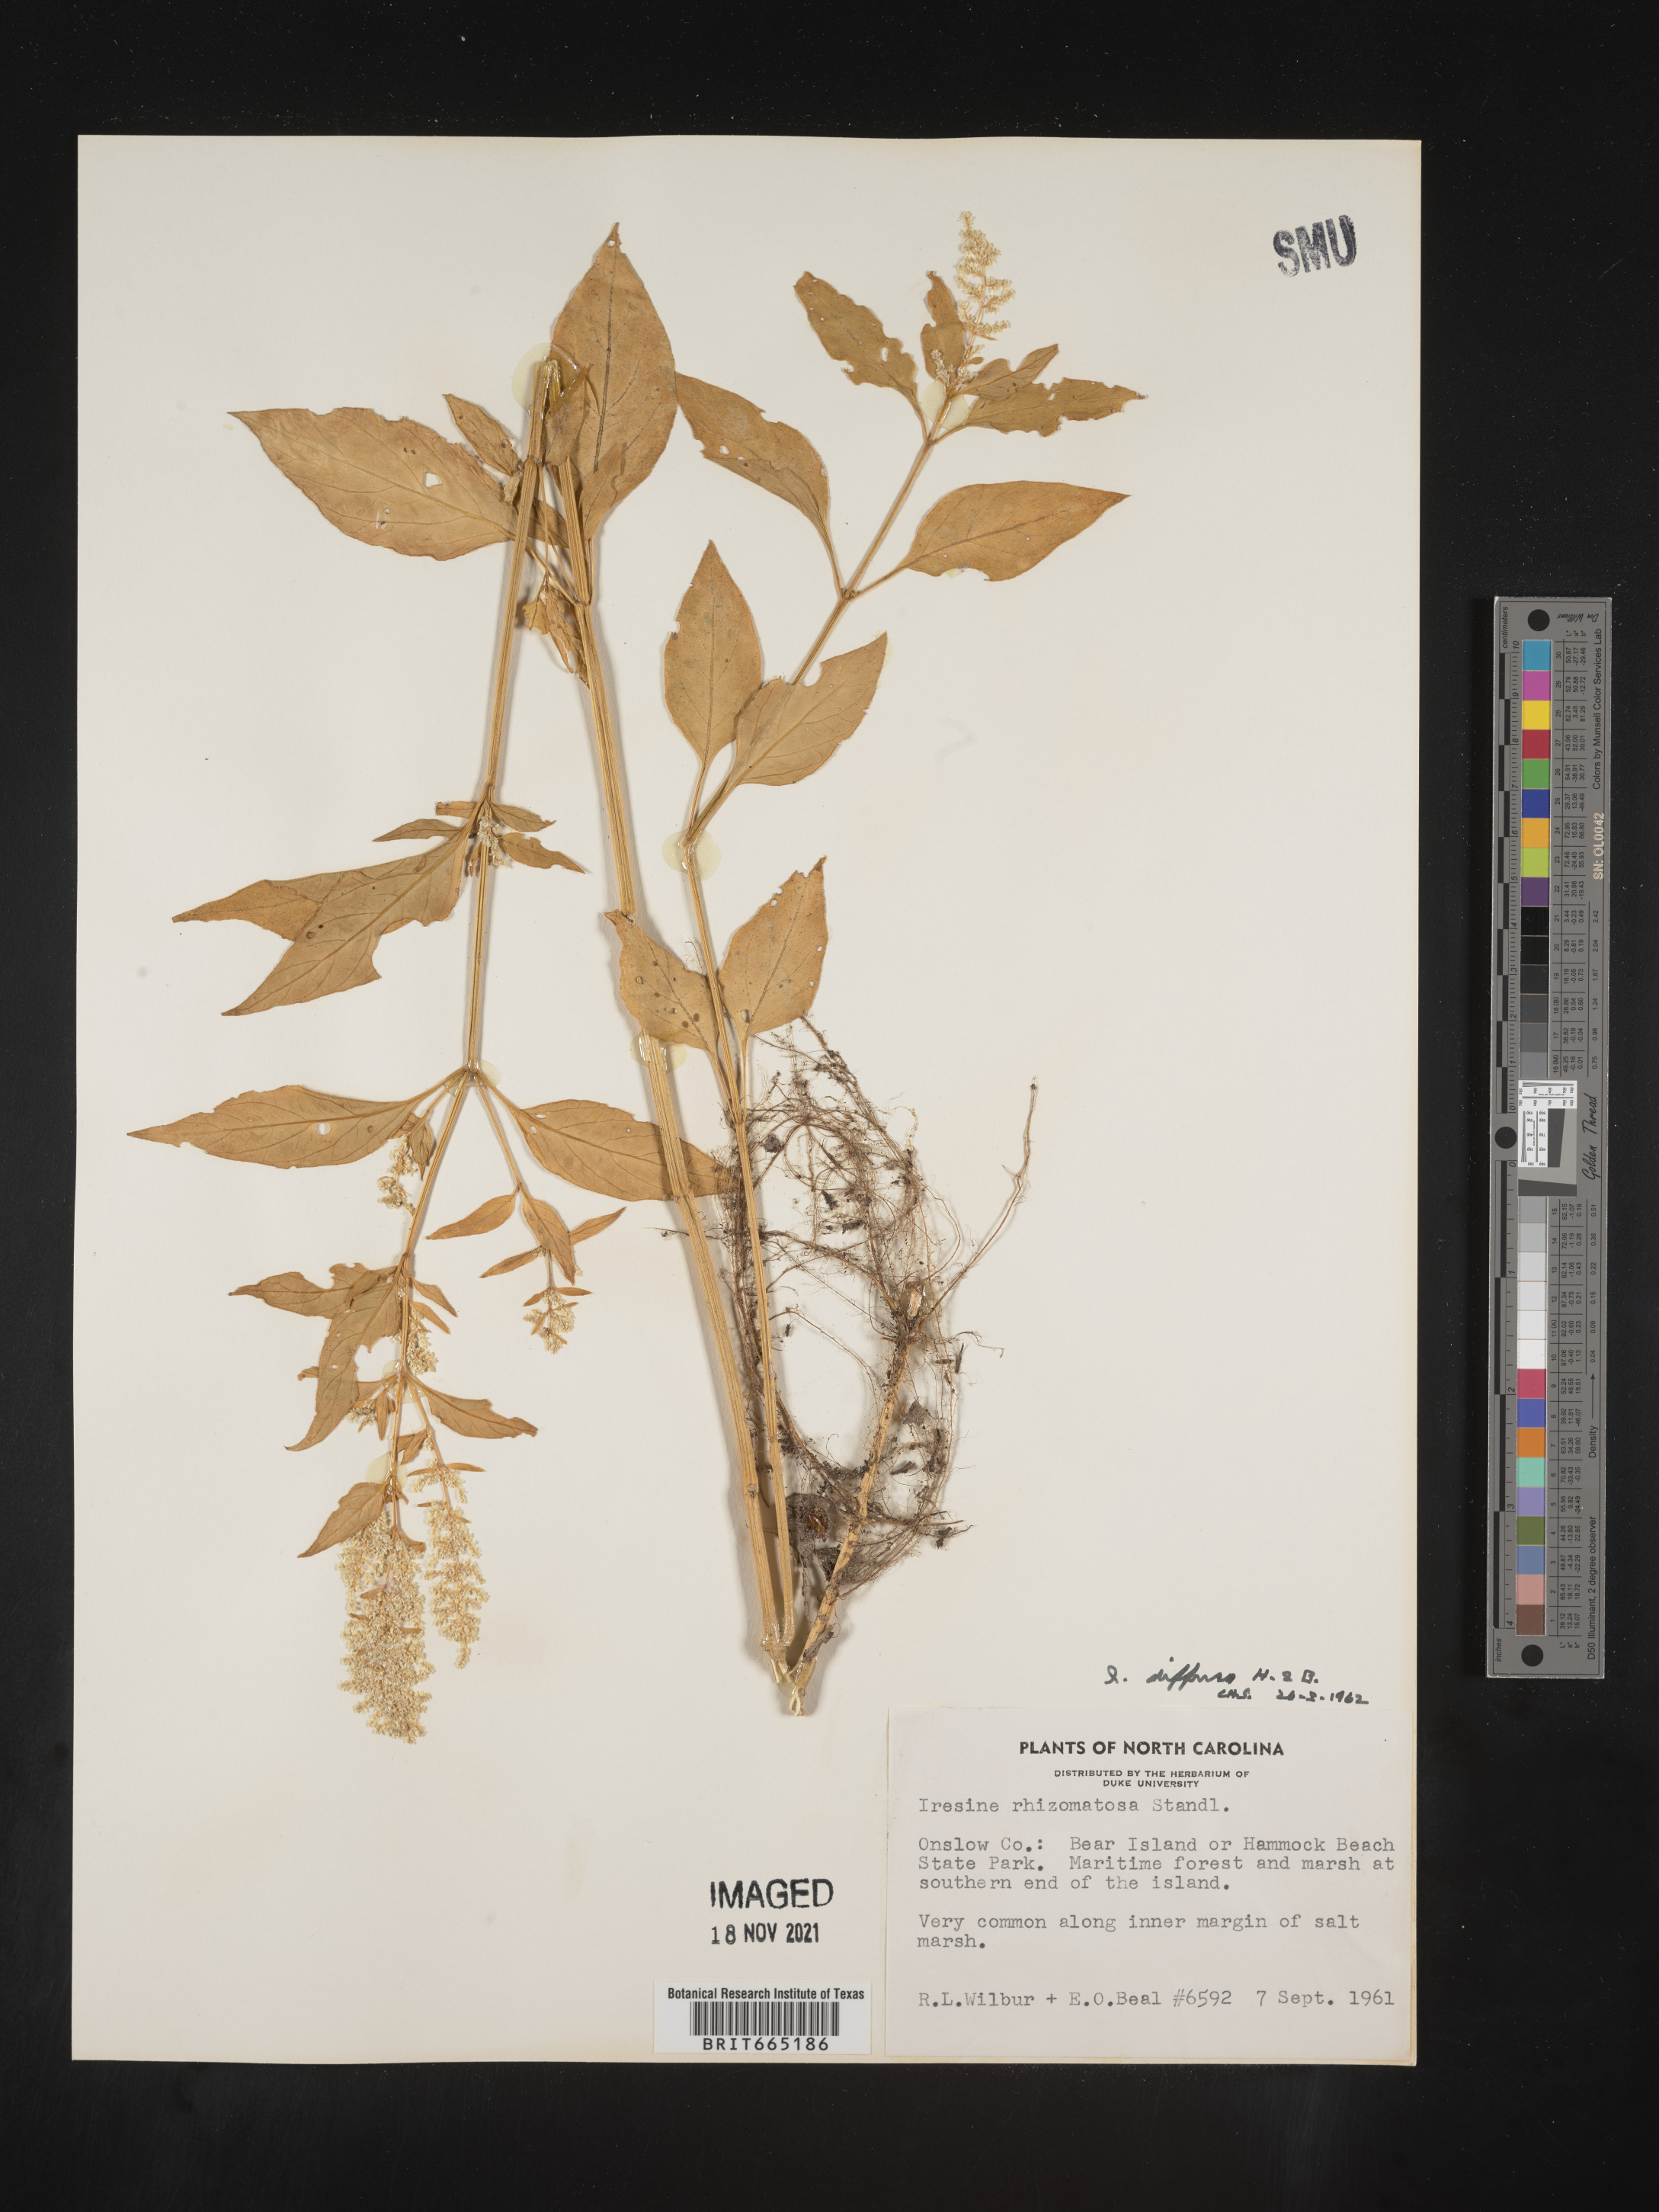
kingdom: Plantae
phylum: Tracheophyta
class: Magnoliopsida
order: Caryophyllales
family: Amaranthaceae
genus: Iresine
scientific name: Iresine rhizomatosa
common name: Juda's-bush
